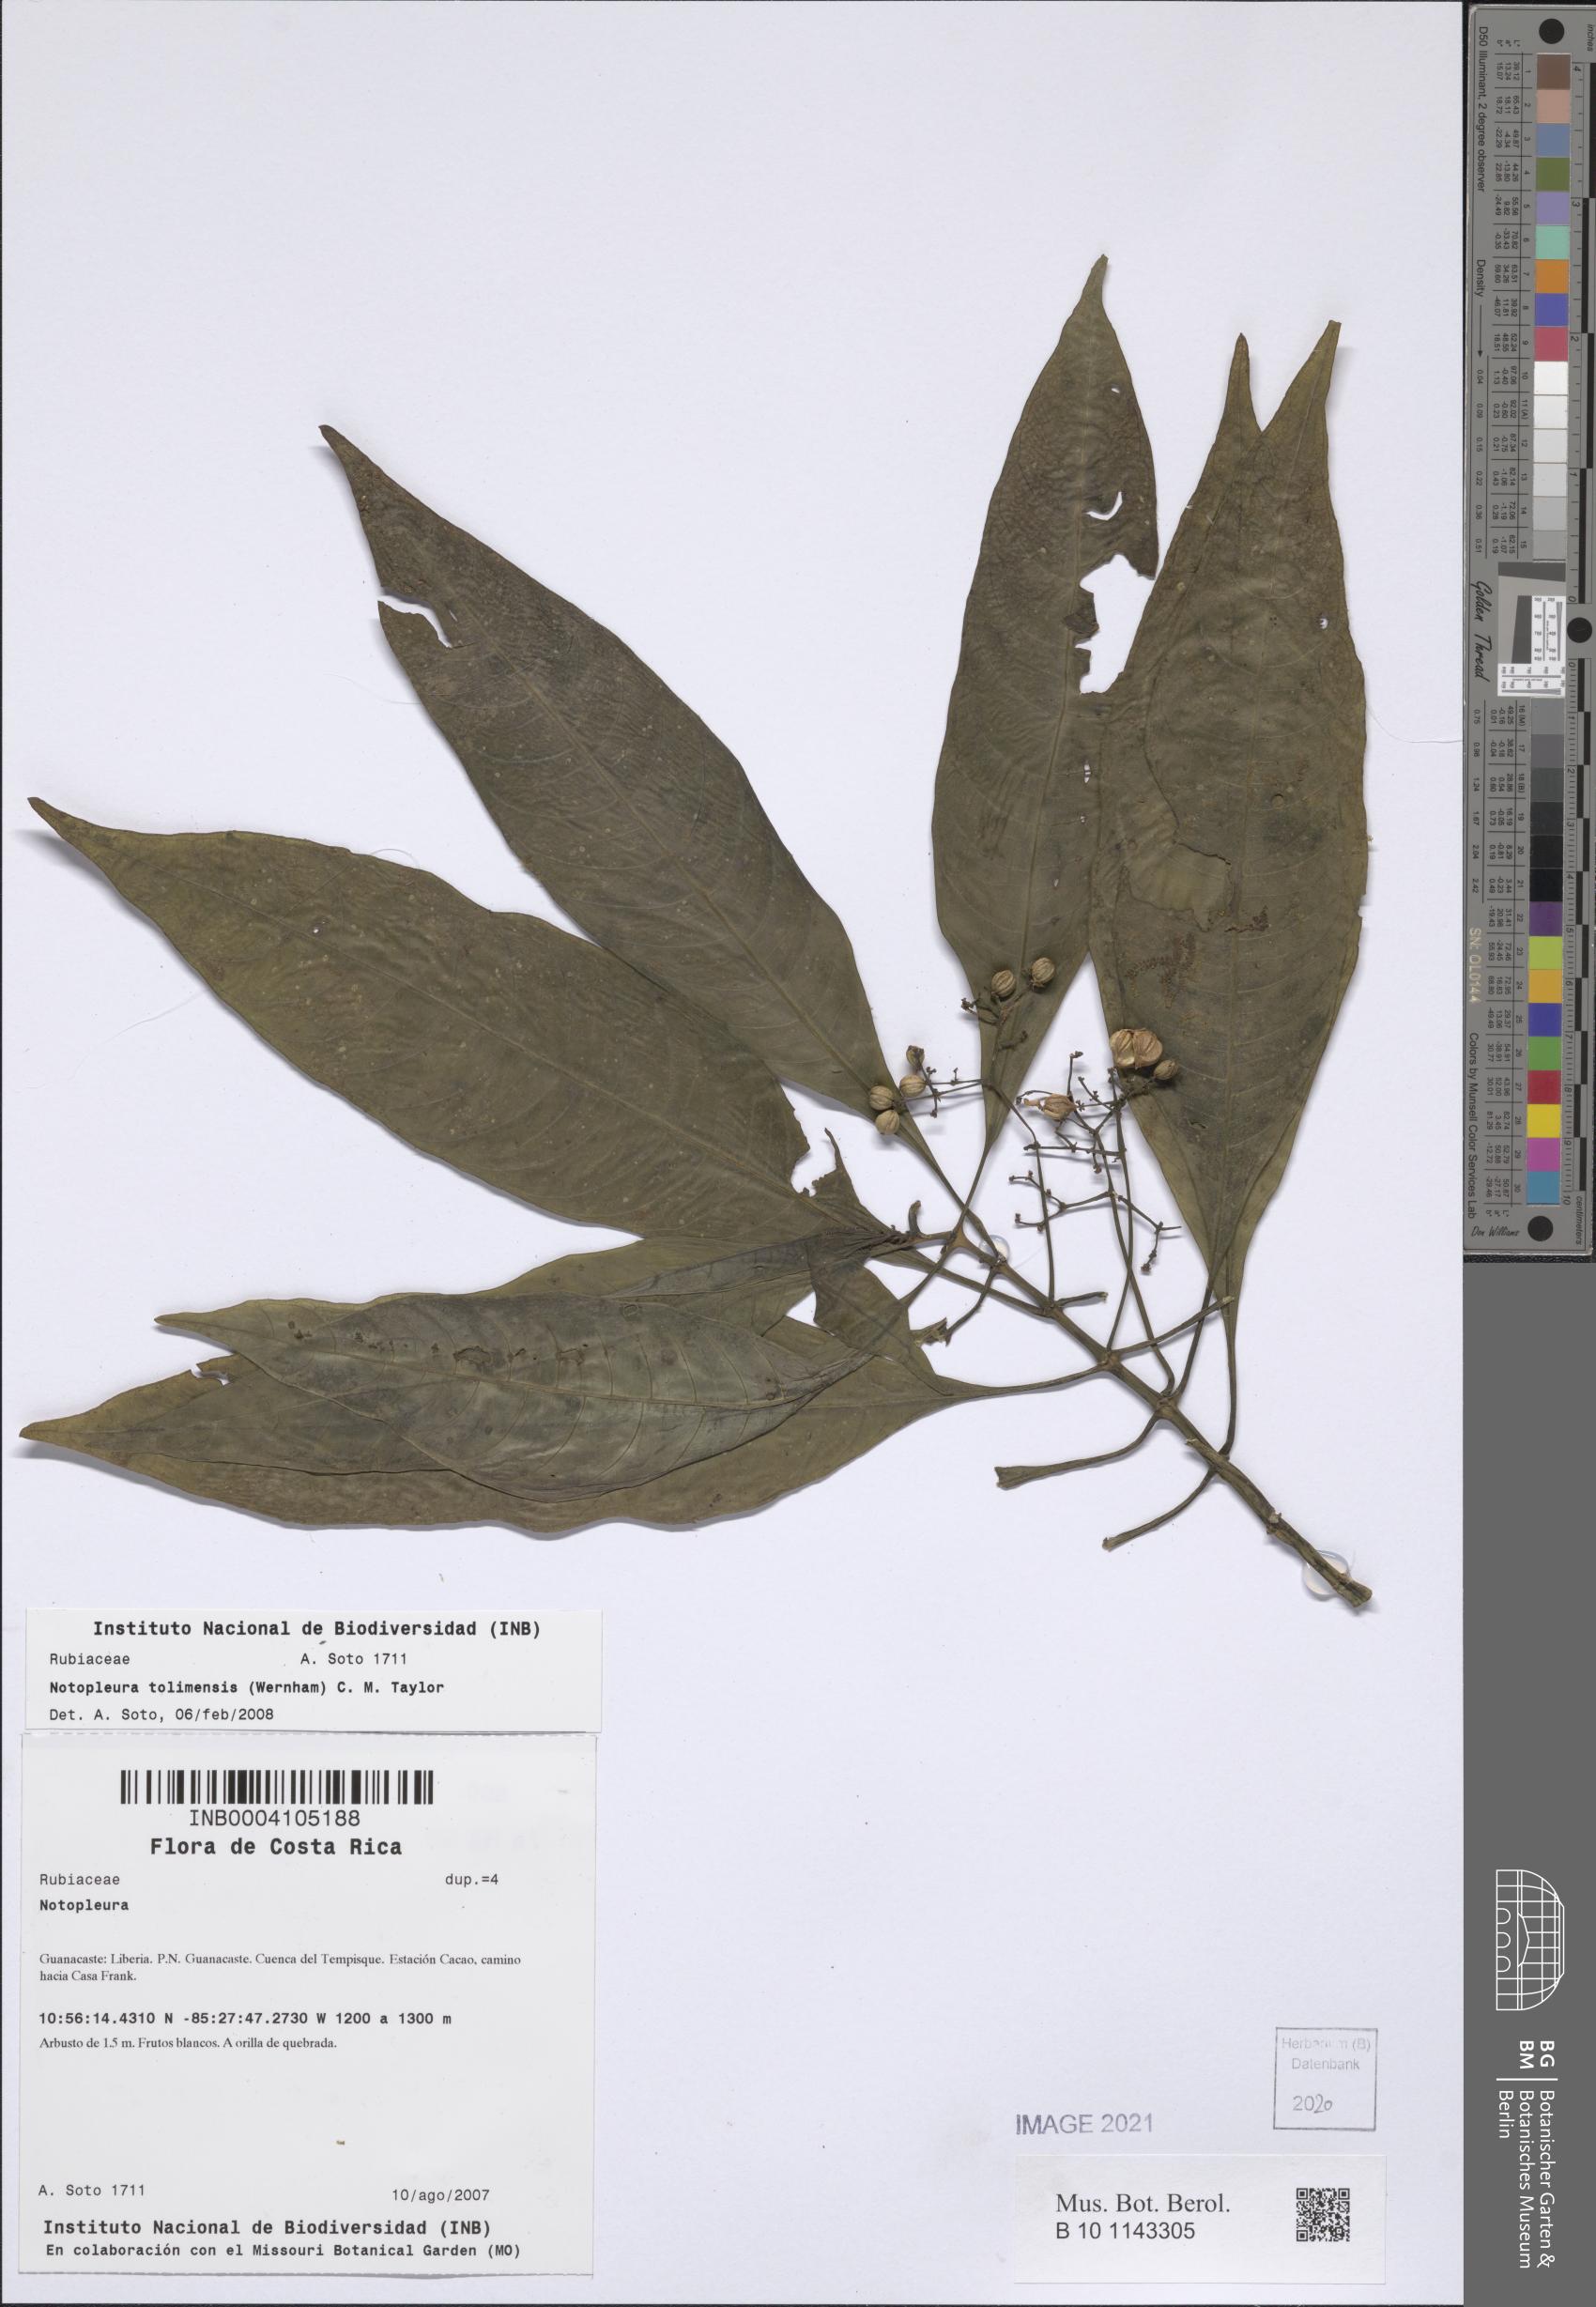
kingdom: Plantae
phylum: Tracheophyta
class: Magnoliopsida
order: Gentianales
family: Rubiaceae
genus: Notopleura
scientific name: Notopleura tolimensis
